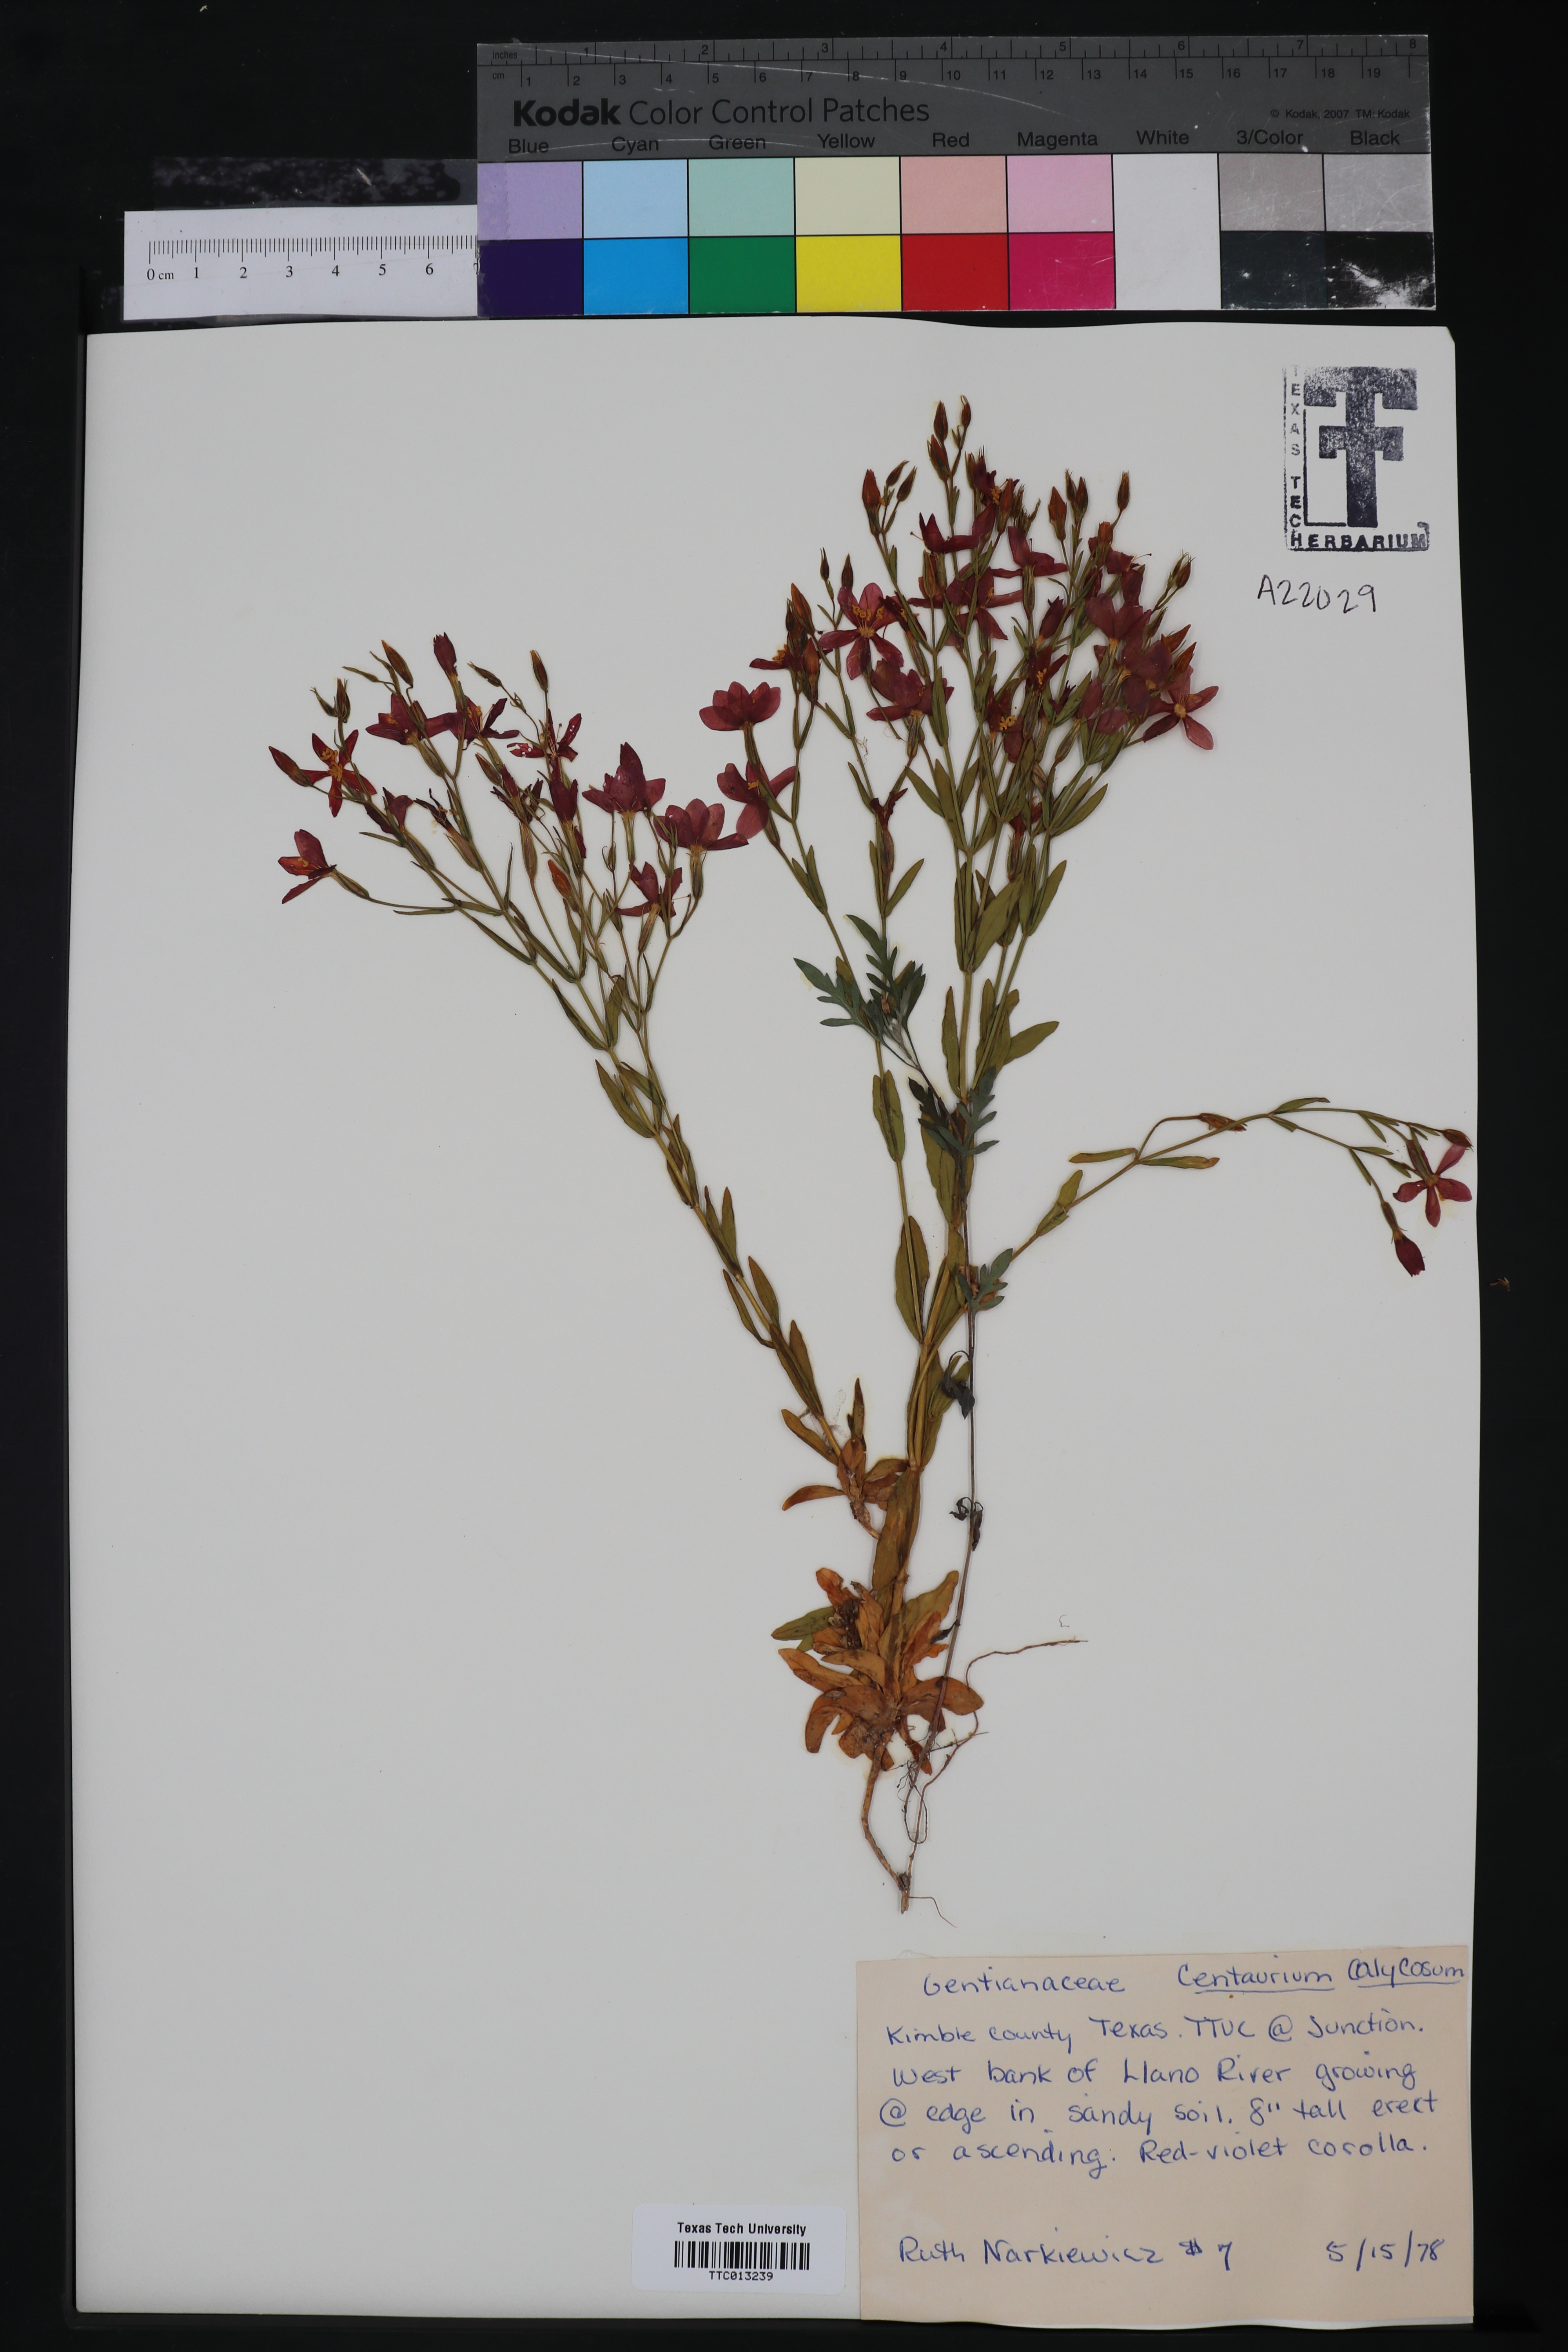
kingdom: Plantae
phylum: Tracheophyta
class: Magnoliopsida
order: Gentianales
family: Gentianaceae
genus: Zeltnera
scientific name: Zeltnera calycosa
